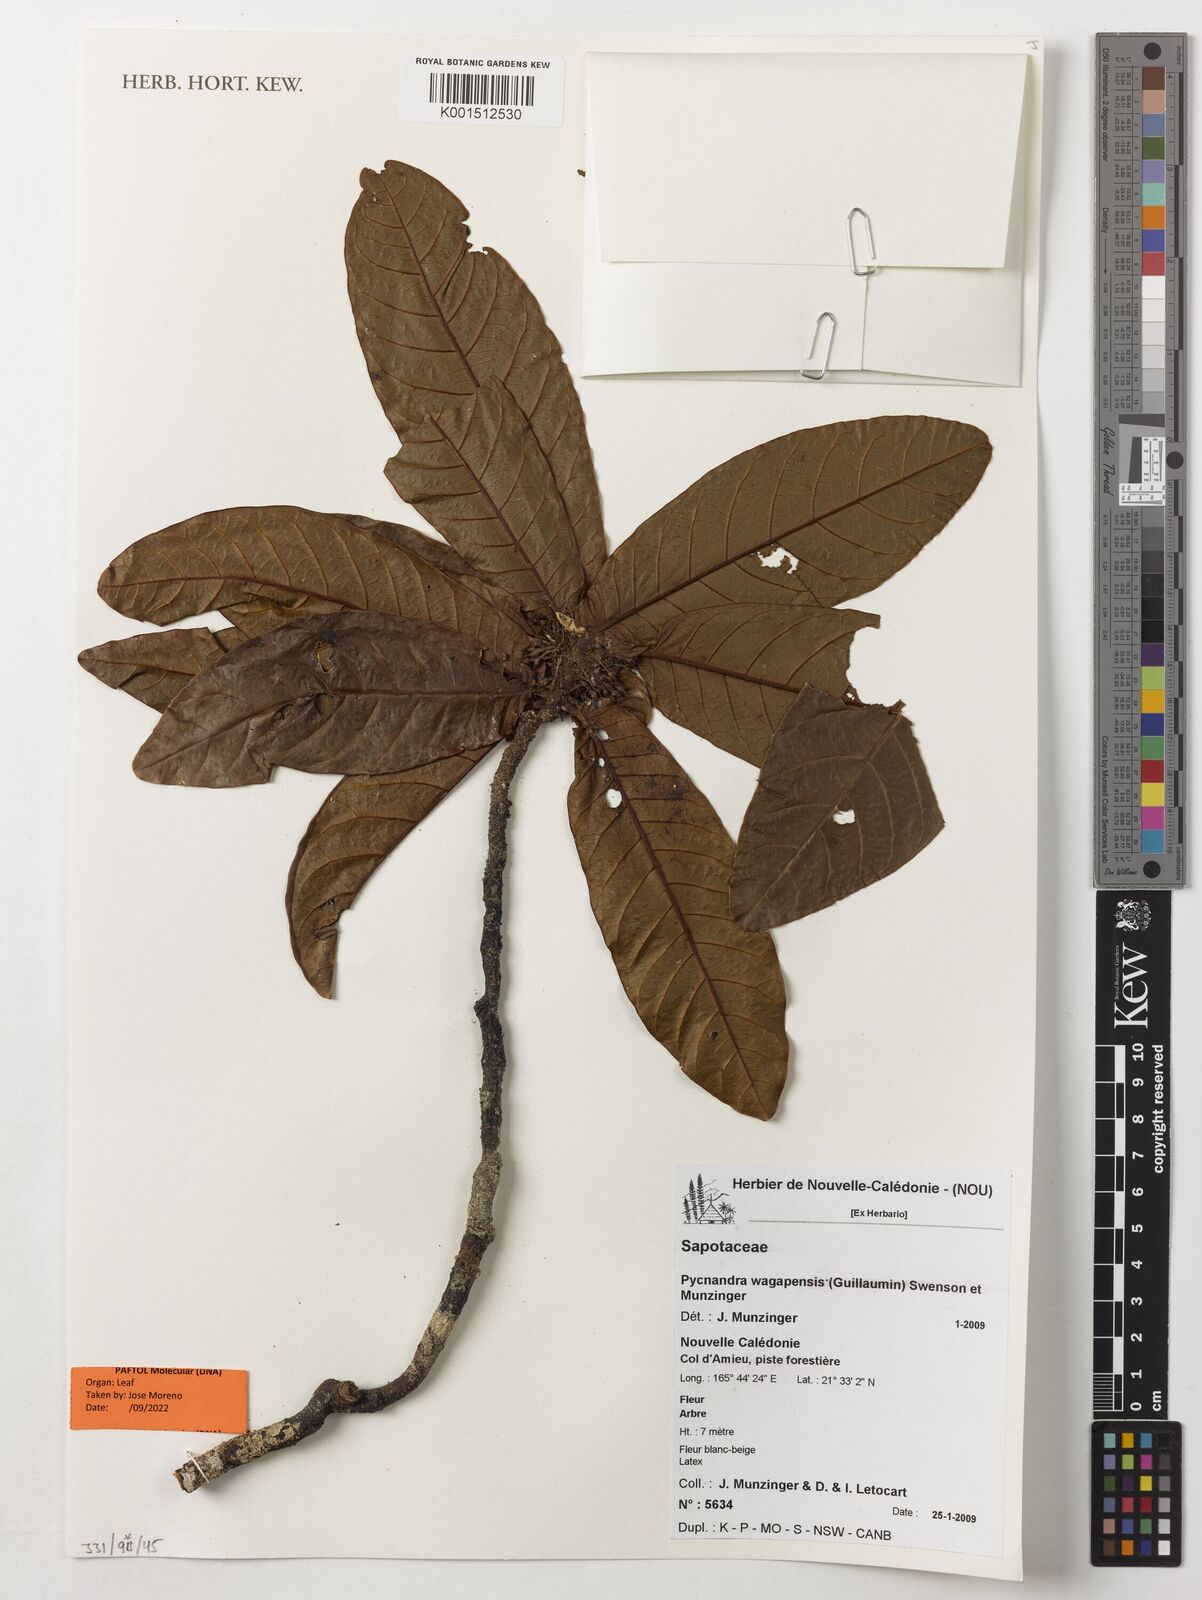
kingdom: Plantae
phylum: Tracheophyta
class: Magnoliopsida
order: Ericales
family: Sapotaceae
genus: Pycnandra
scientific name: Pycnandra wagapensis
